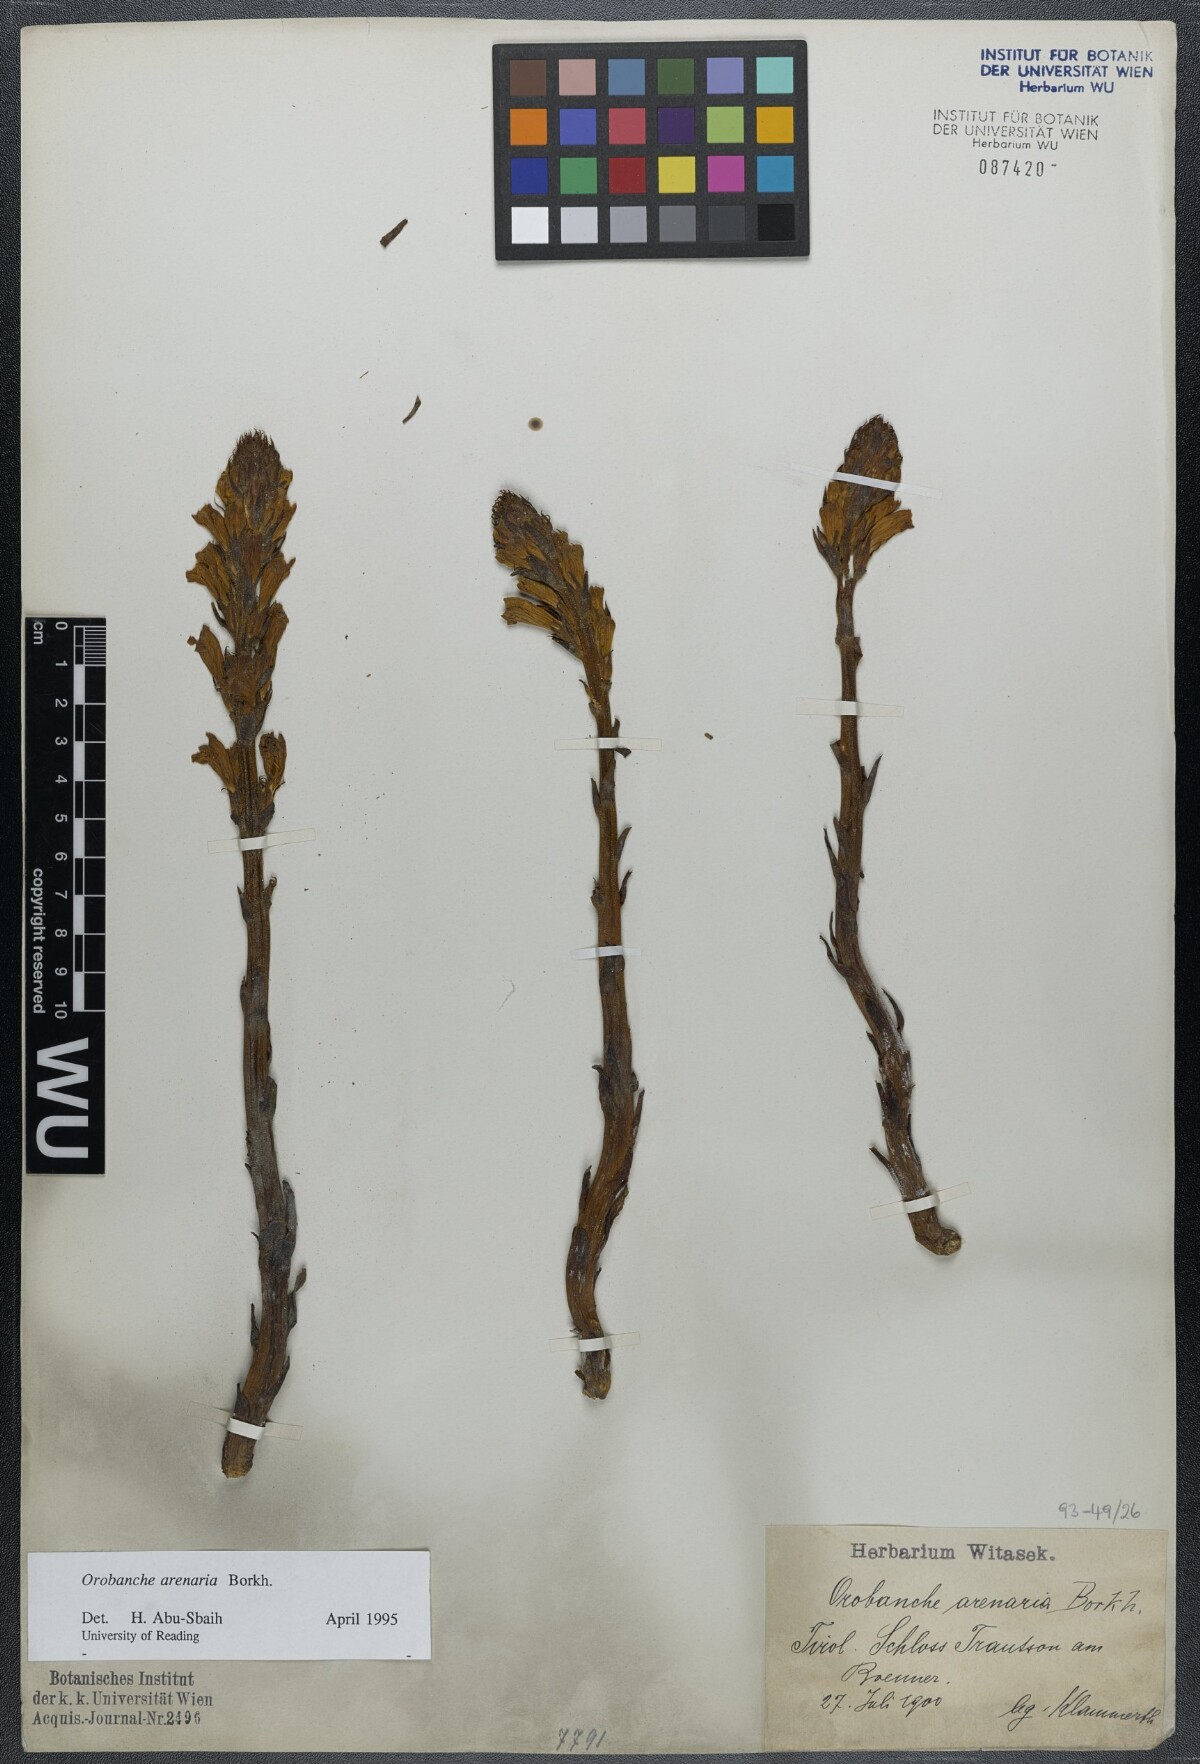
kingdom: Plantae
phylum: Tracheophyta
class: Magnoliopsida
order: Lamiales
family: Orobanchaceae
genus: Phelipanche
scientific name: Phelipanche arenaria
